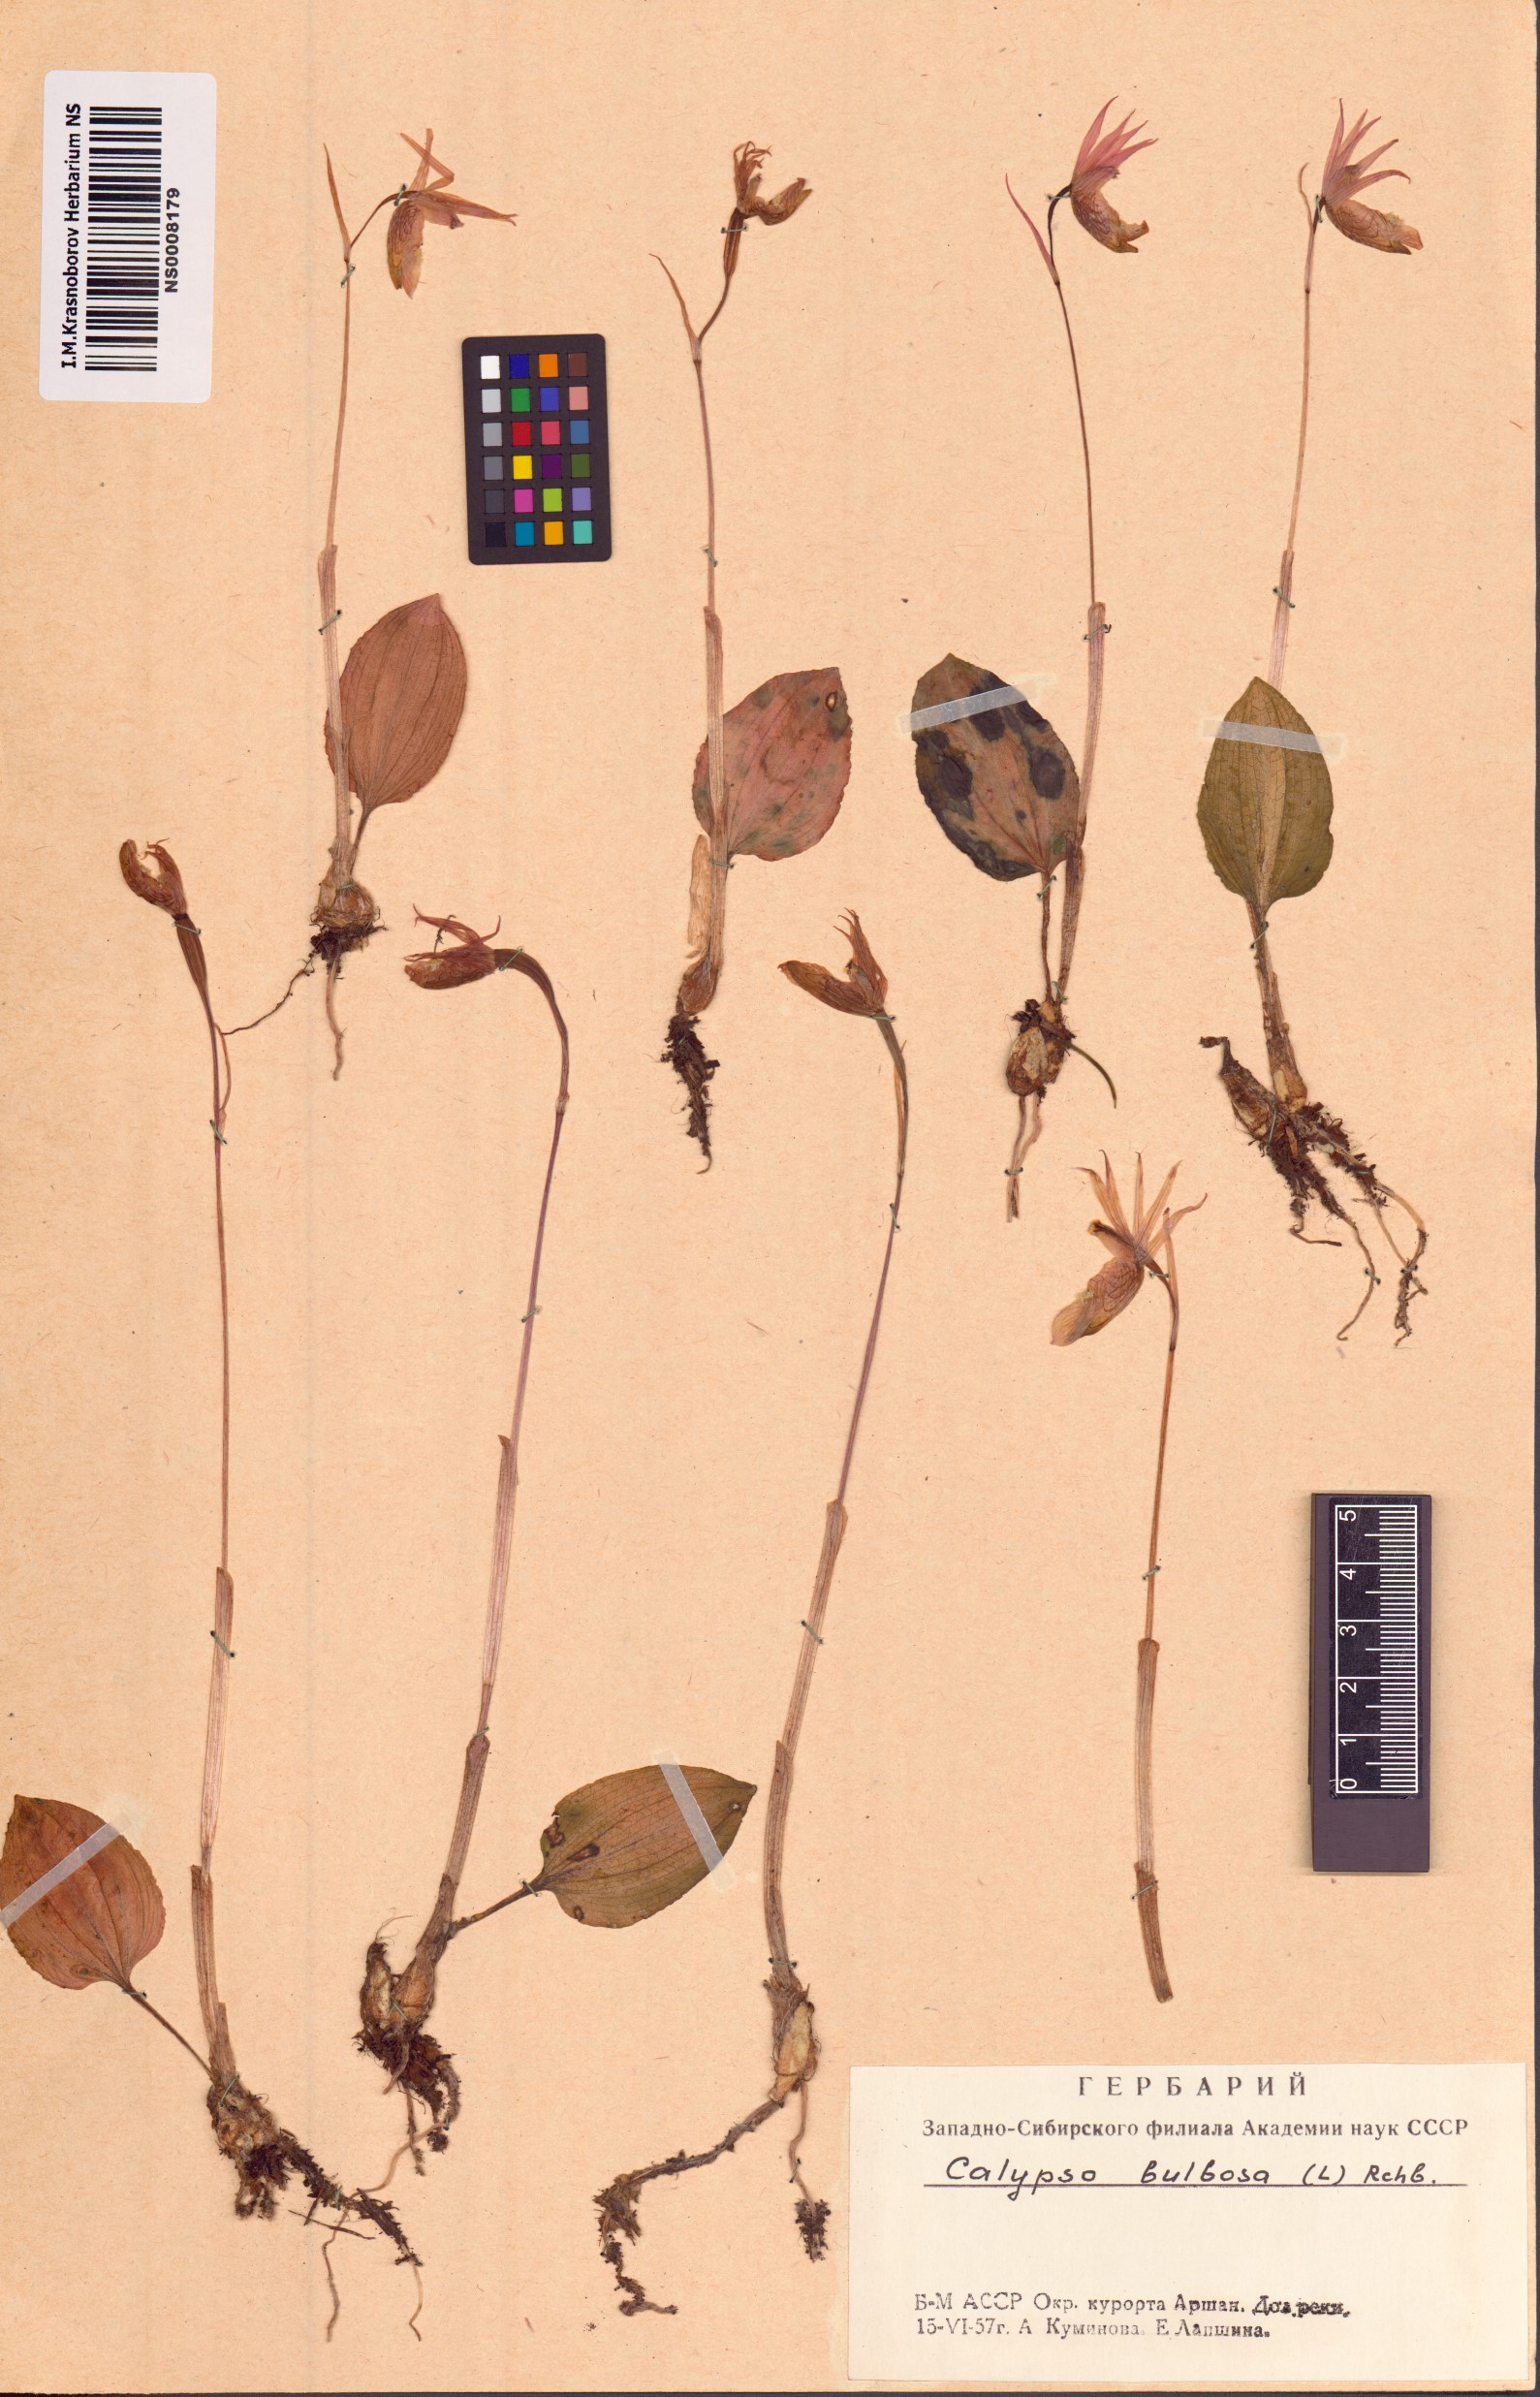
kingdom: Plantae
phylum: Tracheophyta
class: Liliopsida
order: Asparagales
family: Orchidaceae
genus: Calypso
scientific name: Calypso bulbosa
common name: Calypso
